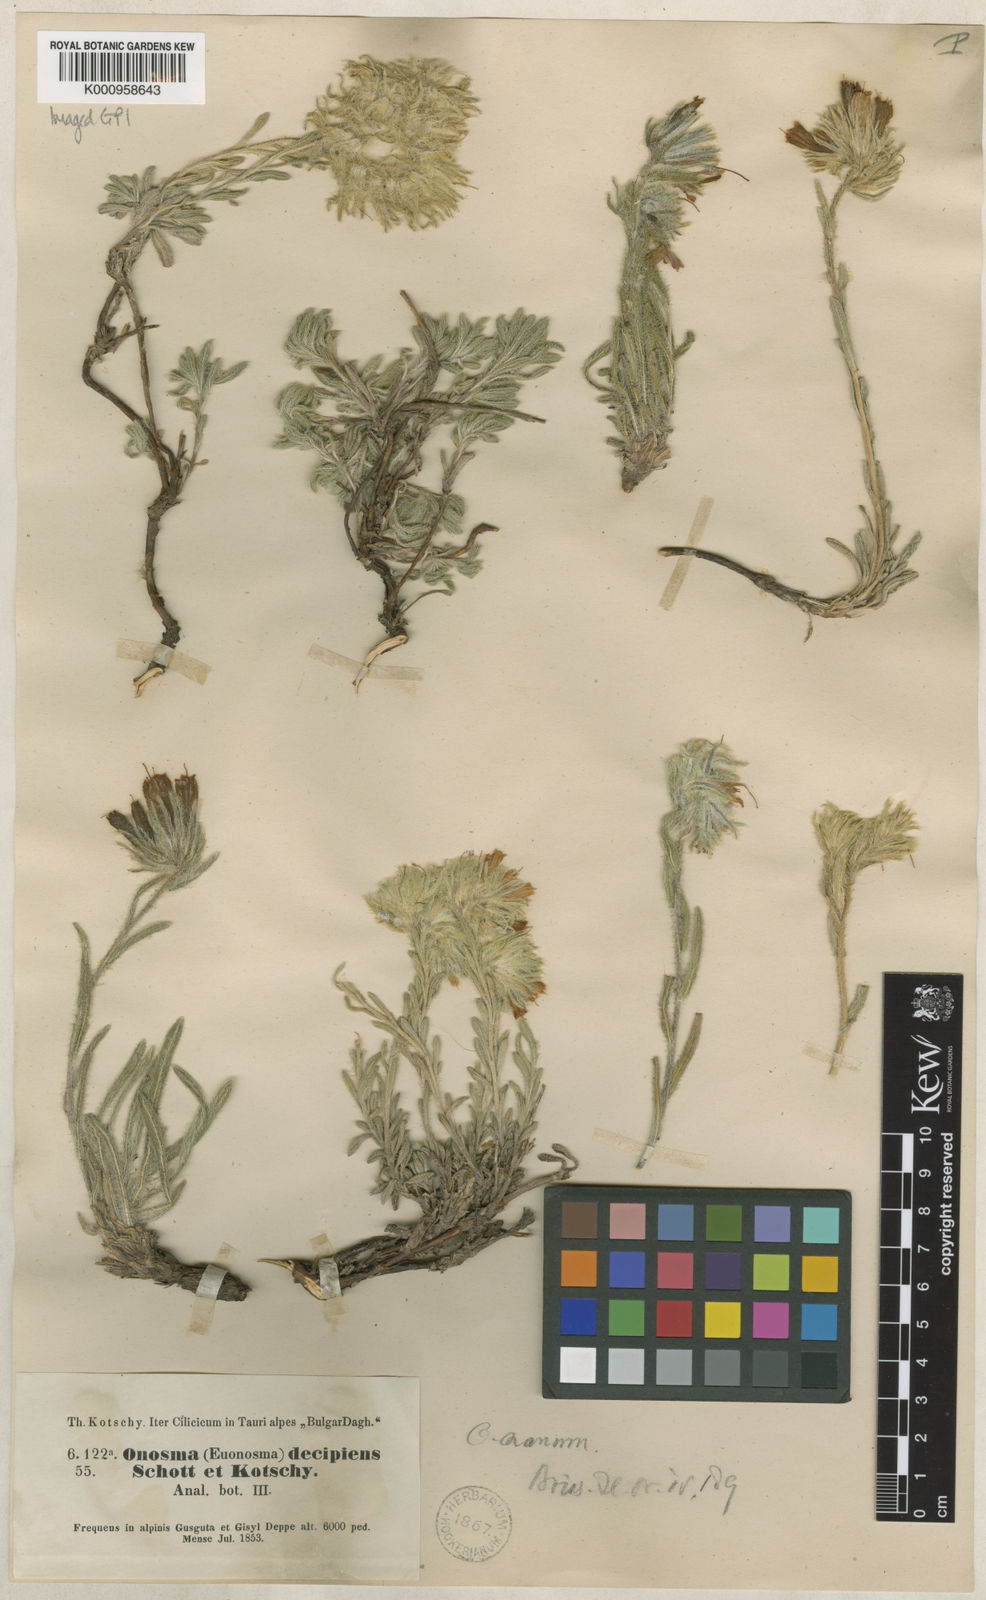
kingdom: Plantae
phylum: Tracheophyta
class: Magnoliopsida
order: Boraginales
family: Boraginaceae
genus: Onosma
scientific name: Onosma nana
